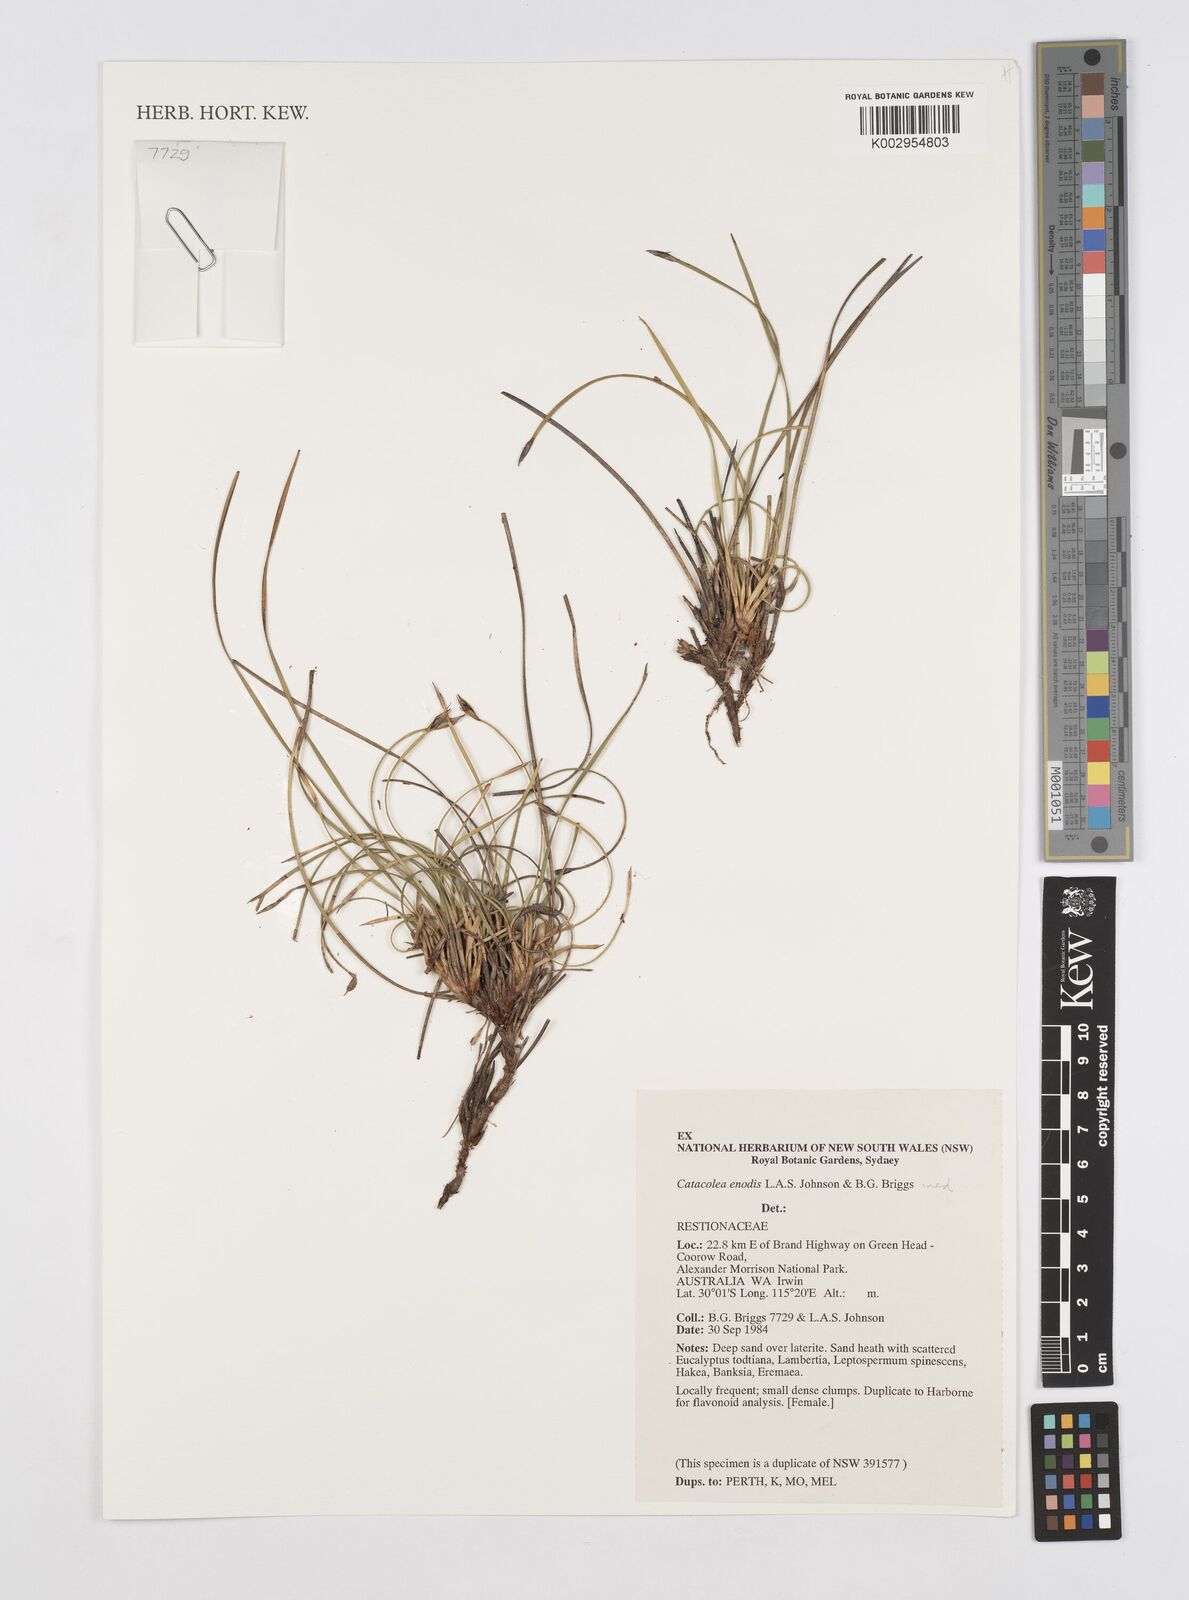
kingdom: Plantae
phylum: Tracheophyta
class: Liliopsida
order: Poales
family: Restionaceae
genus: Catacolea
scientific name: Catacolea enodis
